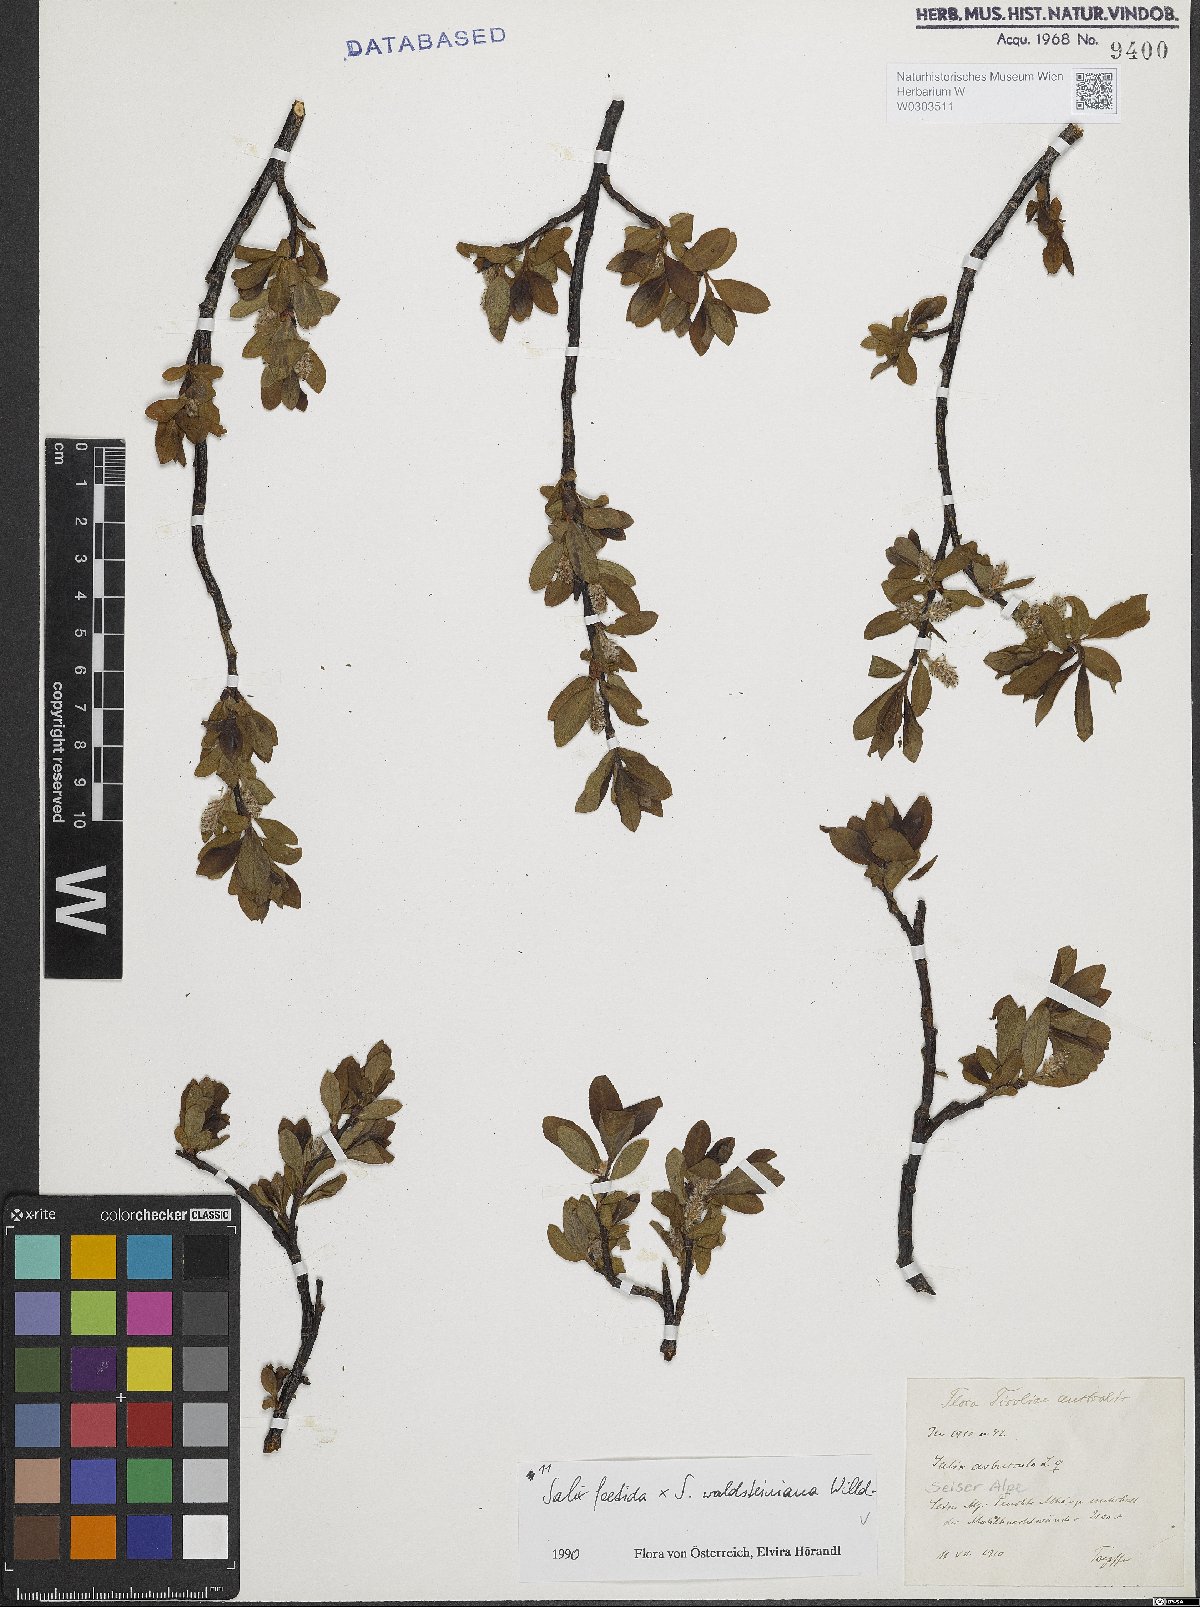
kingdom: Plantae
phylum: Tracheophyta
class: Magnoliopsida
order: Malpighiales
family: Salicaceae
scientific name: Salicaceae
